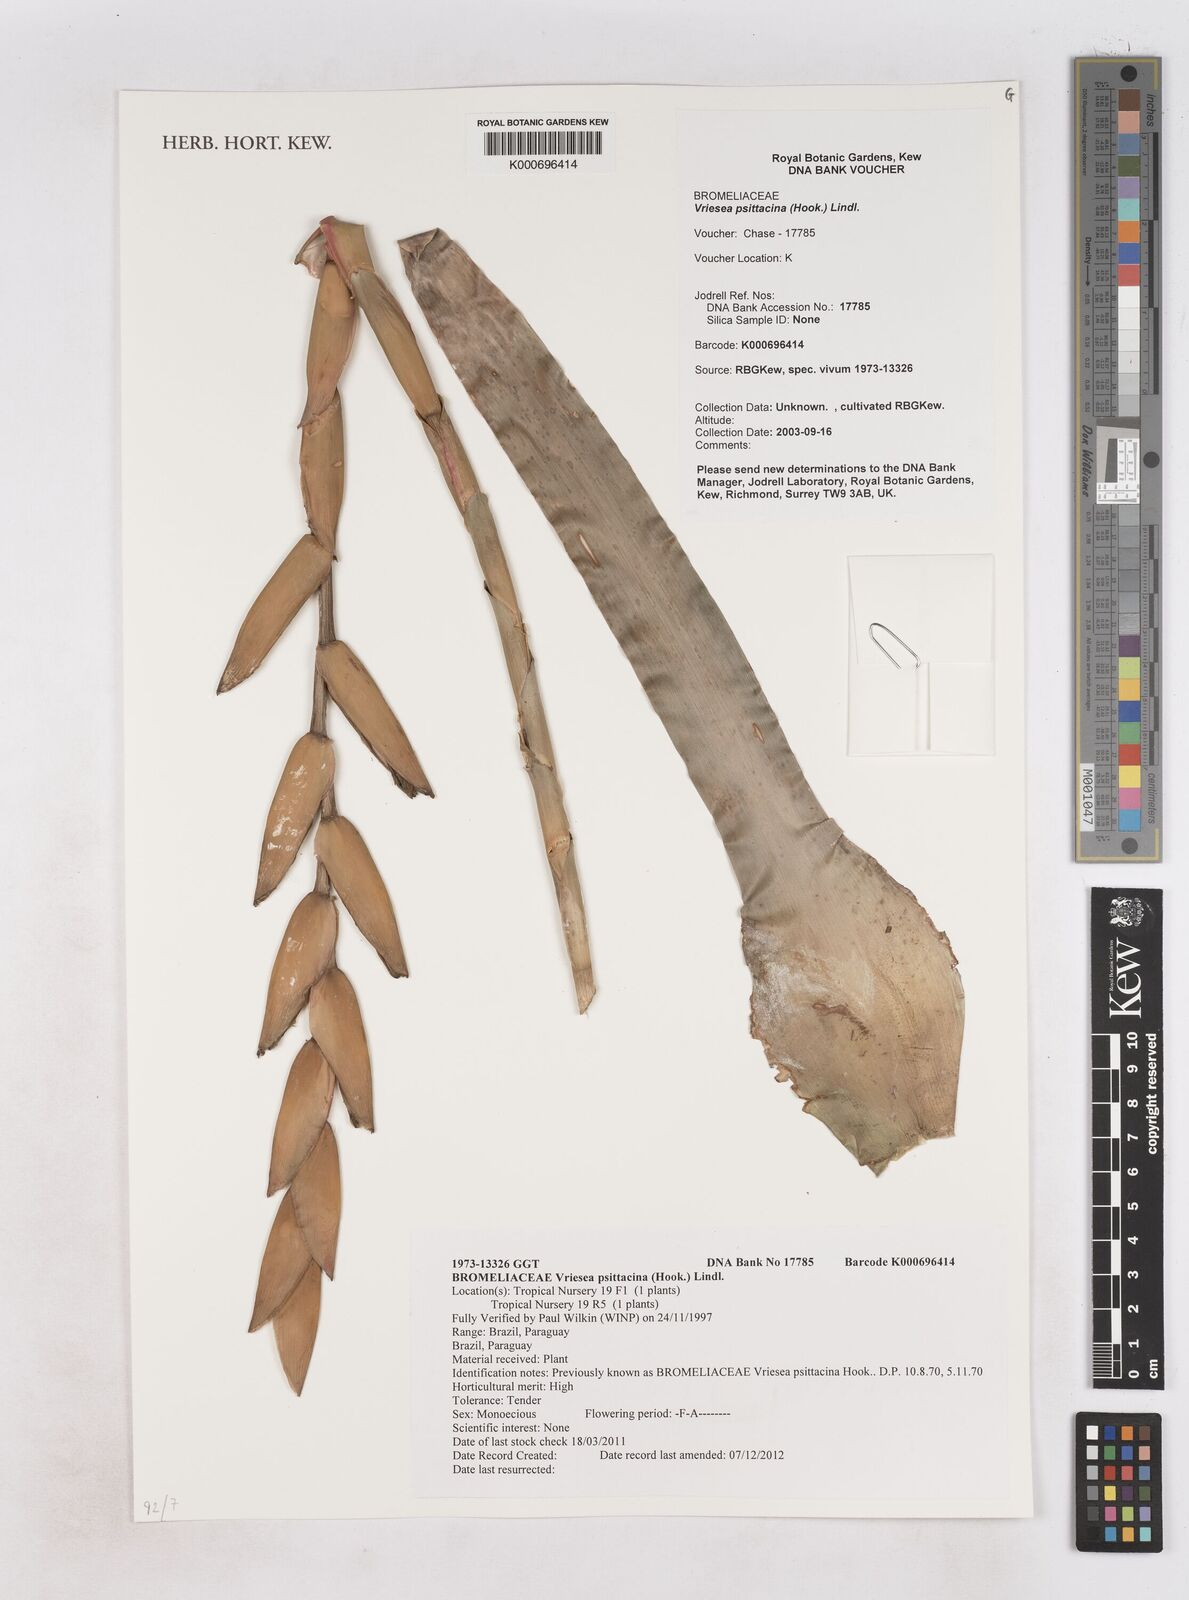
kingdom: Plantae
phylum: Tracheophyta
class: Liliopsida
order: Poales
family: Bromeliaceae
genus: Vriesea
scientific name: Vriesea psittacina
